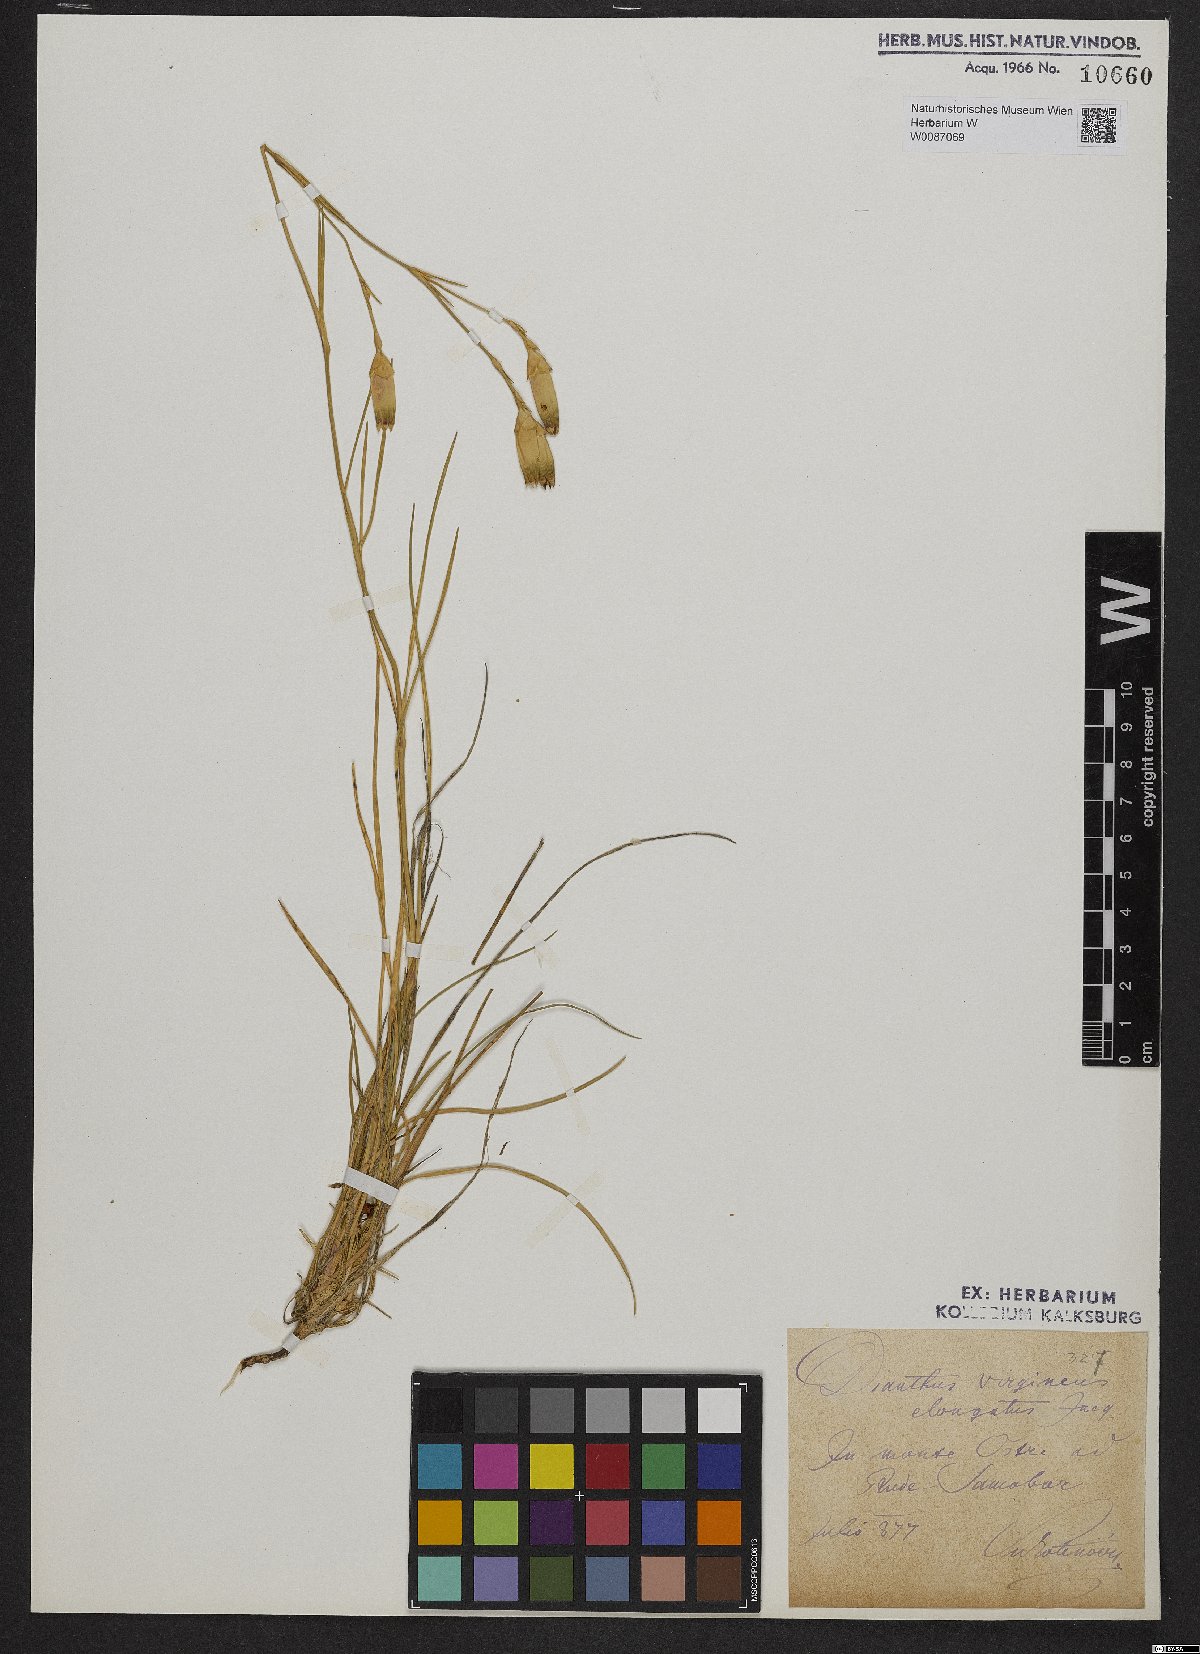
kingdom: Plantae
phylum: Tracheophyta
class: Magnoliopsida
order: Caryophyllales
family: Caryophyllaceae
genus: Dianthus
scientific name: Dianthus virgineus
